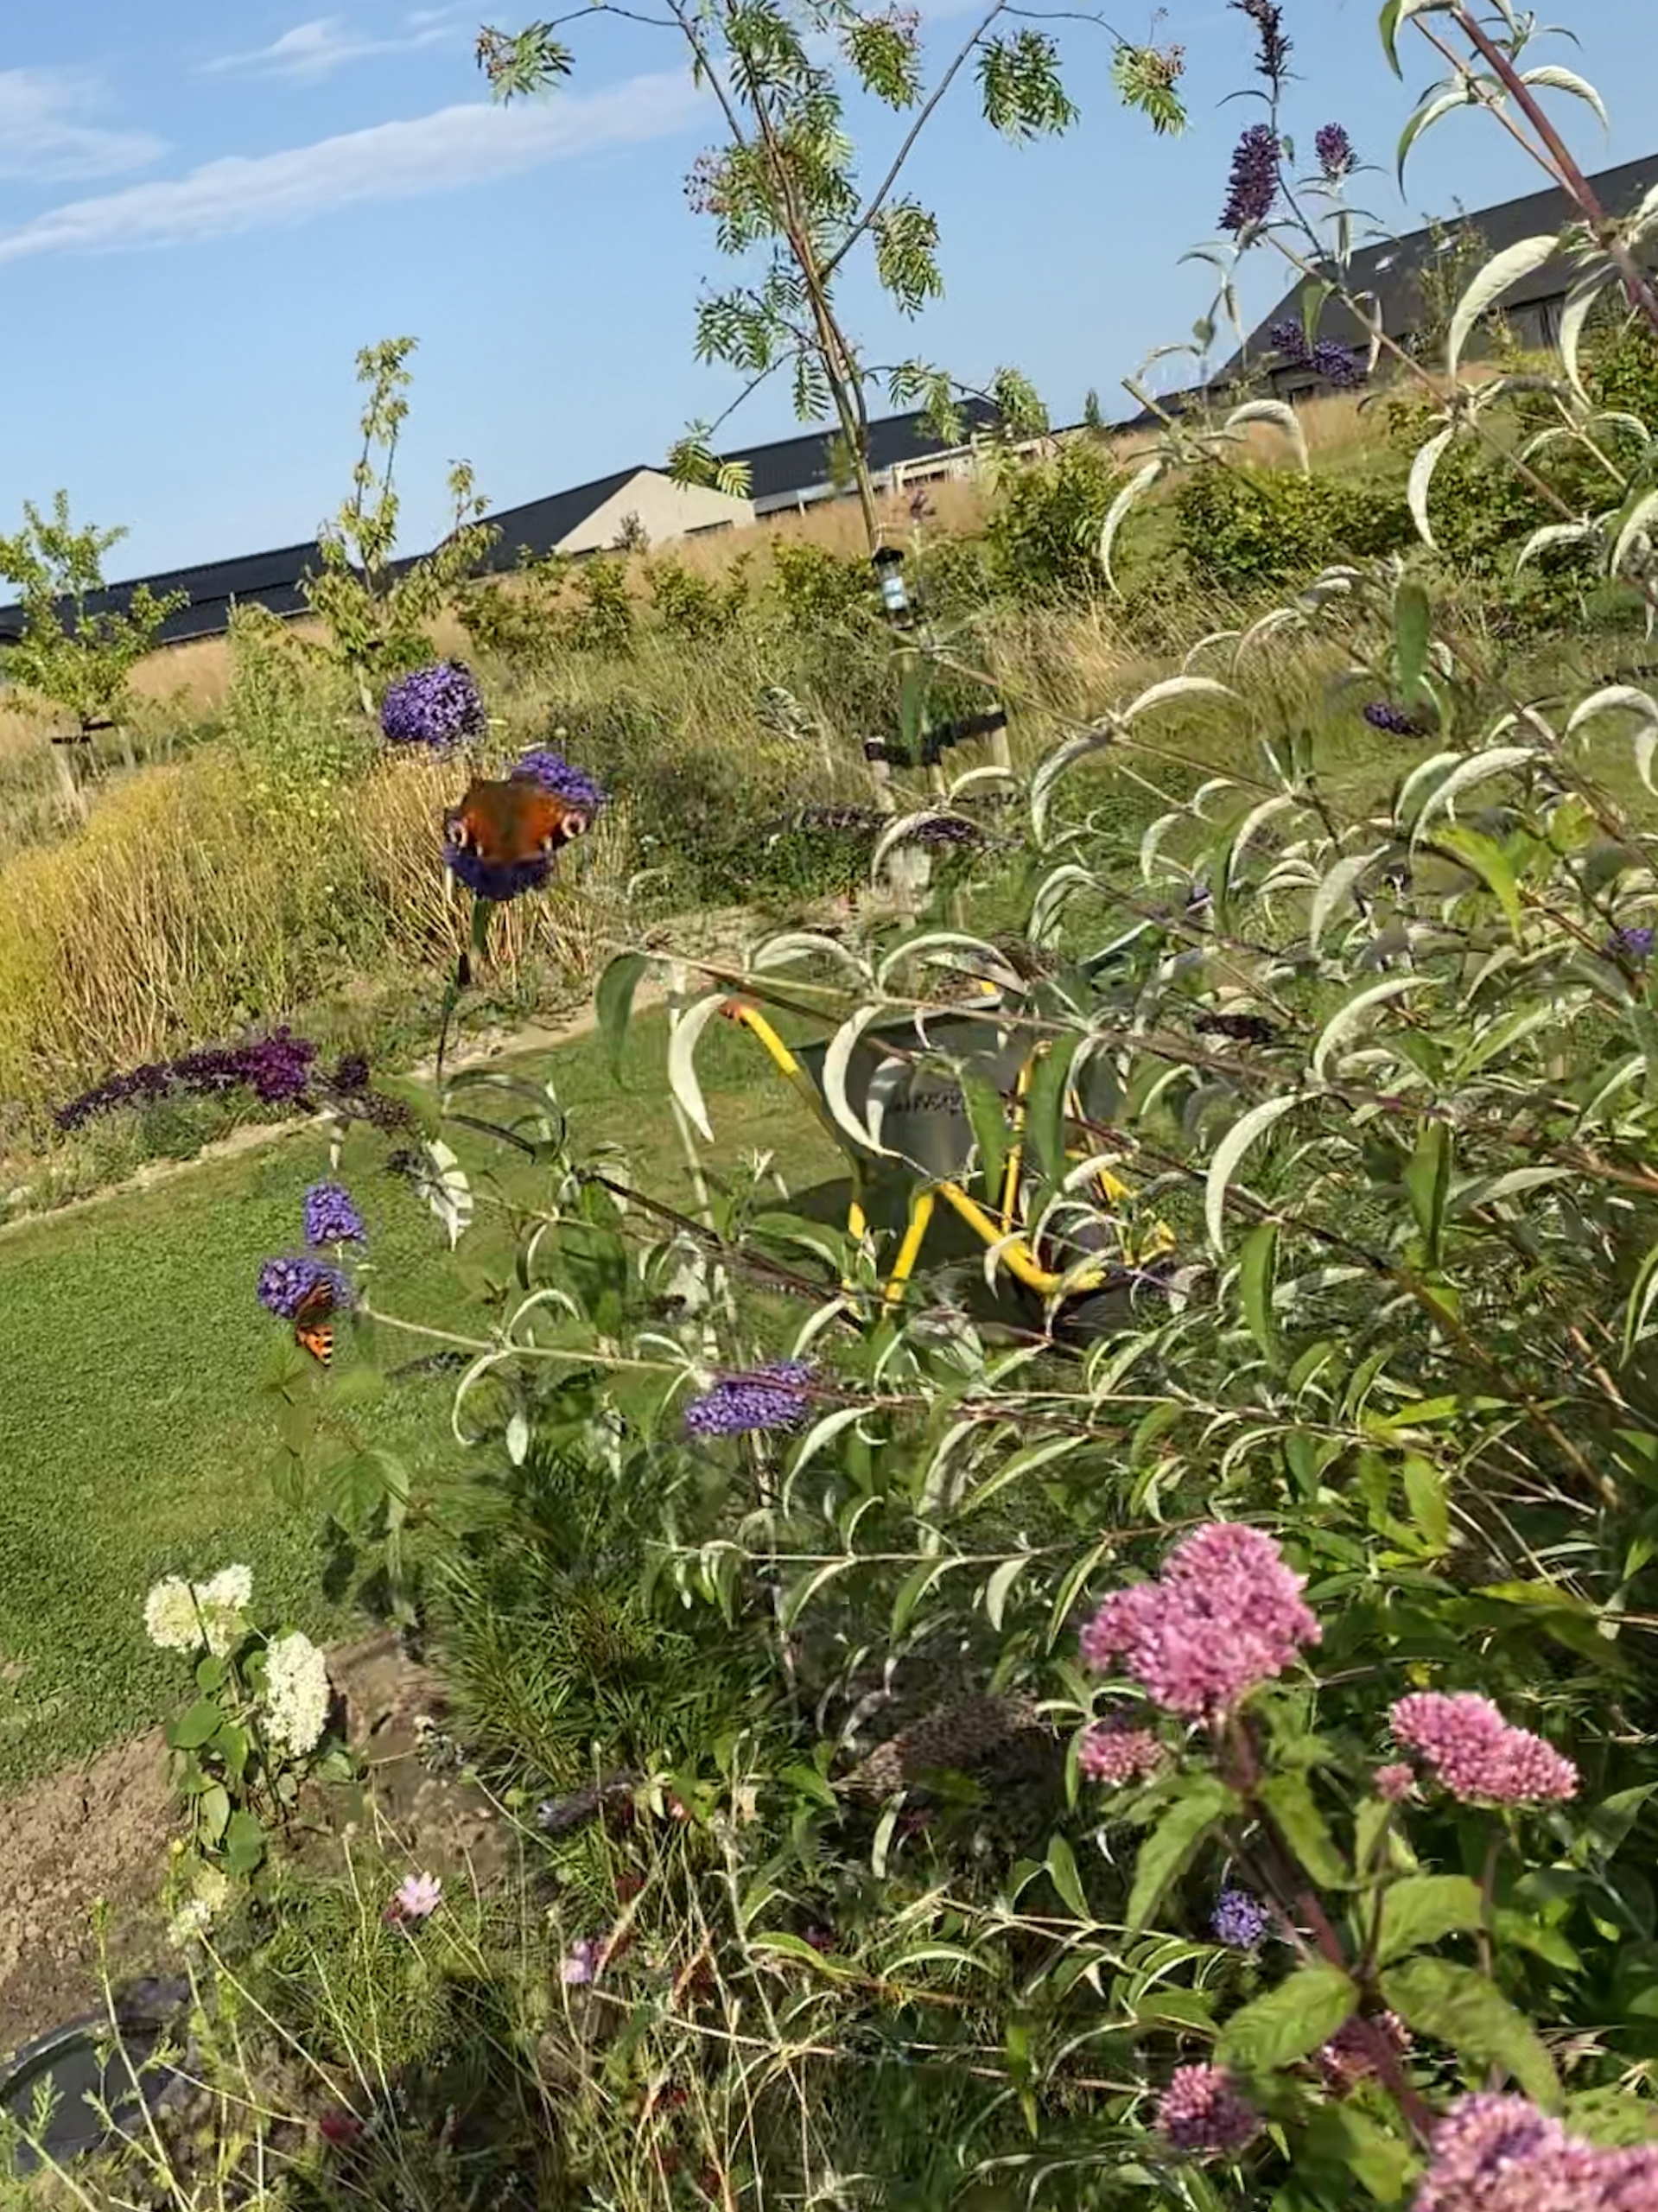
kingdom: Animalia
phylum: Arthropoda
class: Insecta
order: Lepidoptera
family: Nymphalidae
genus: Aglais
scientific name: Aglais io
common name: Dagpåfugleøje
